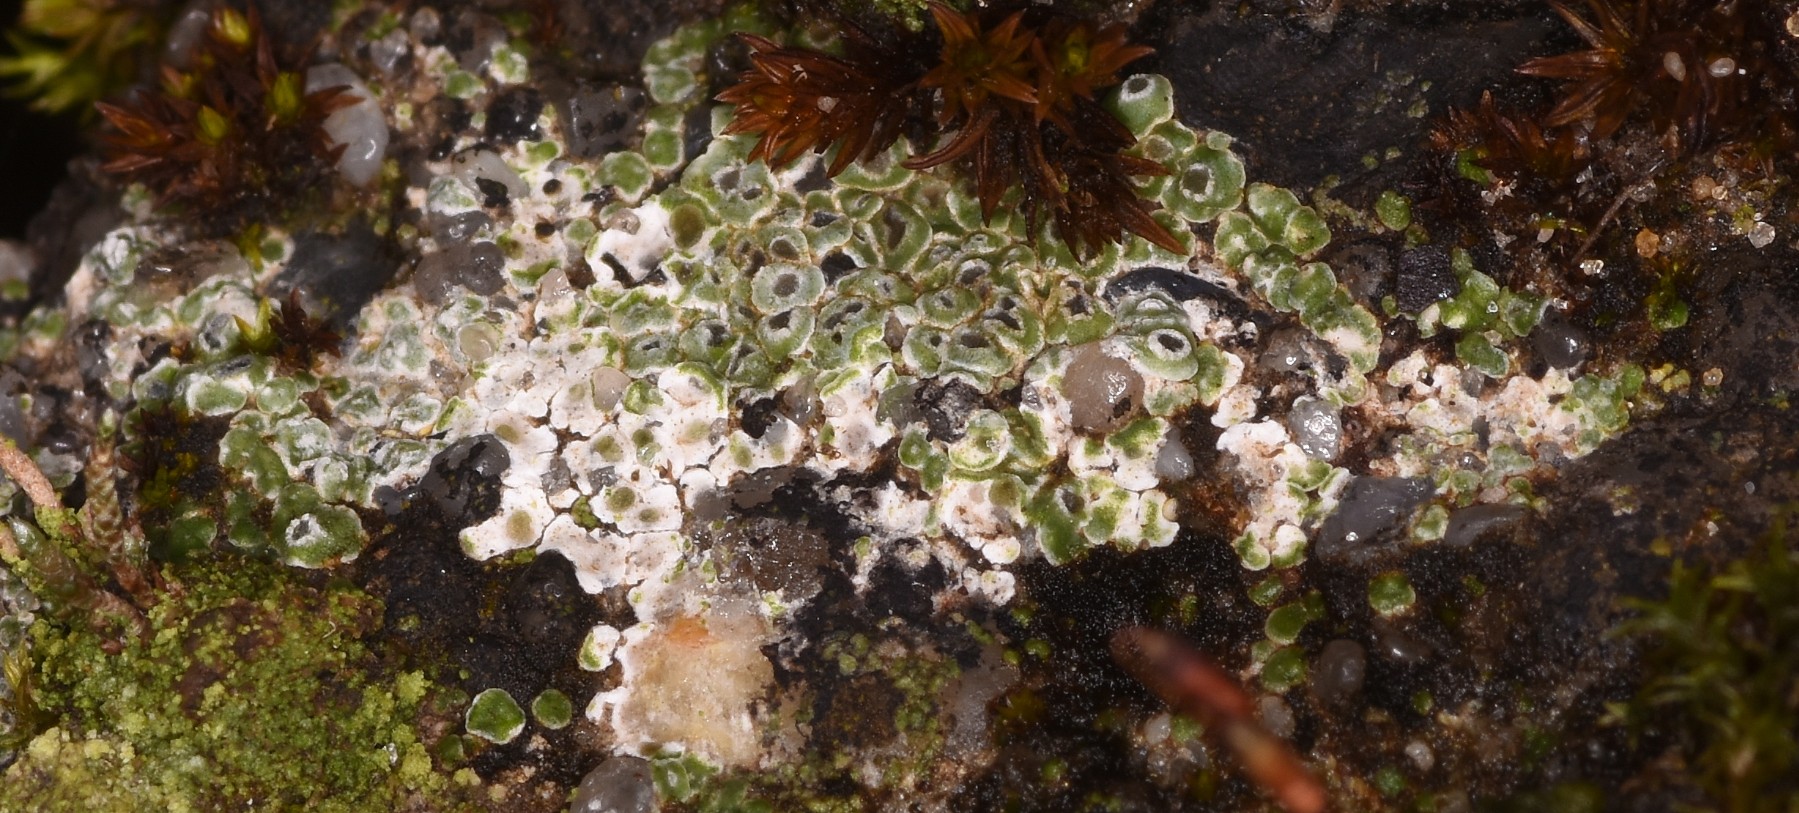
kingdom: Fungi
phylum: Ascomycota
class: Lecanoromycetes
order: Pertusariales
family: Megasporaceae
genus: Circinaria
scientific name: Circinaria contorta
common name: indviklet hulskivelav
